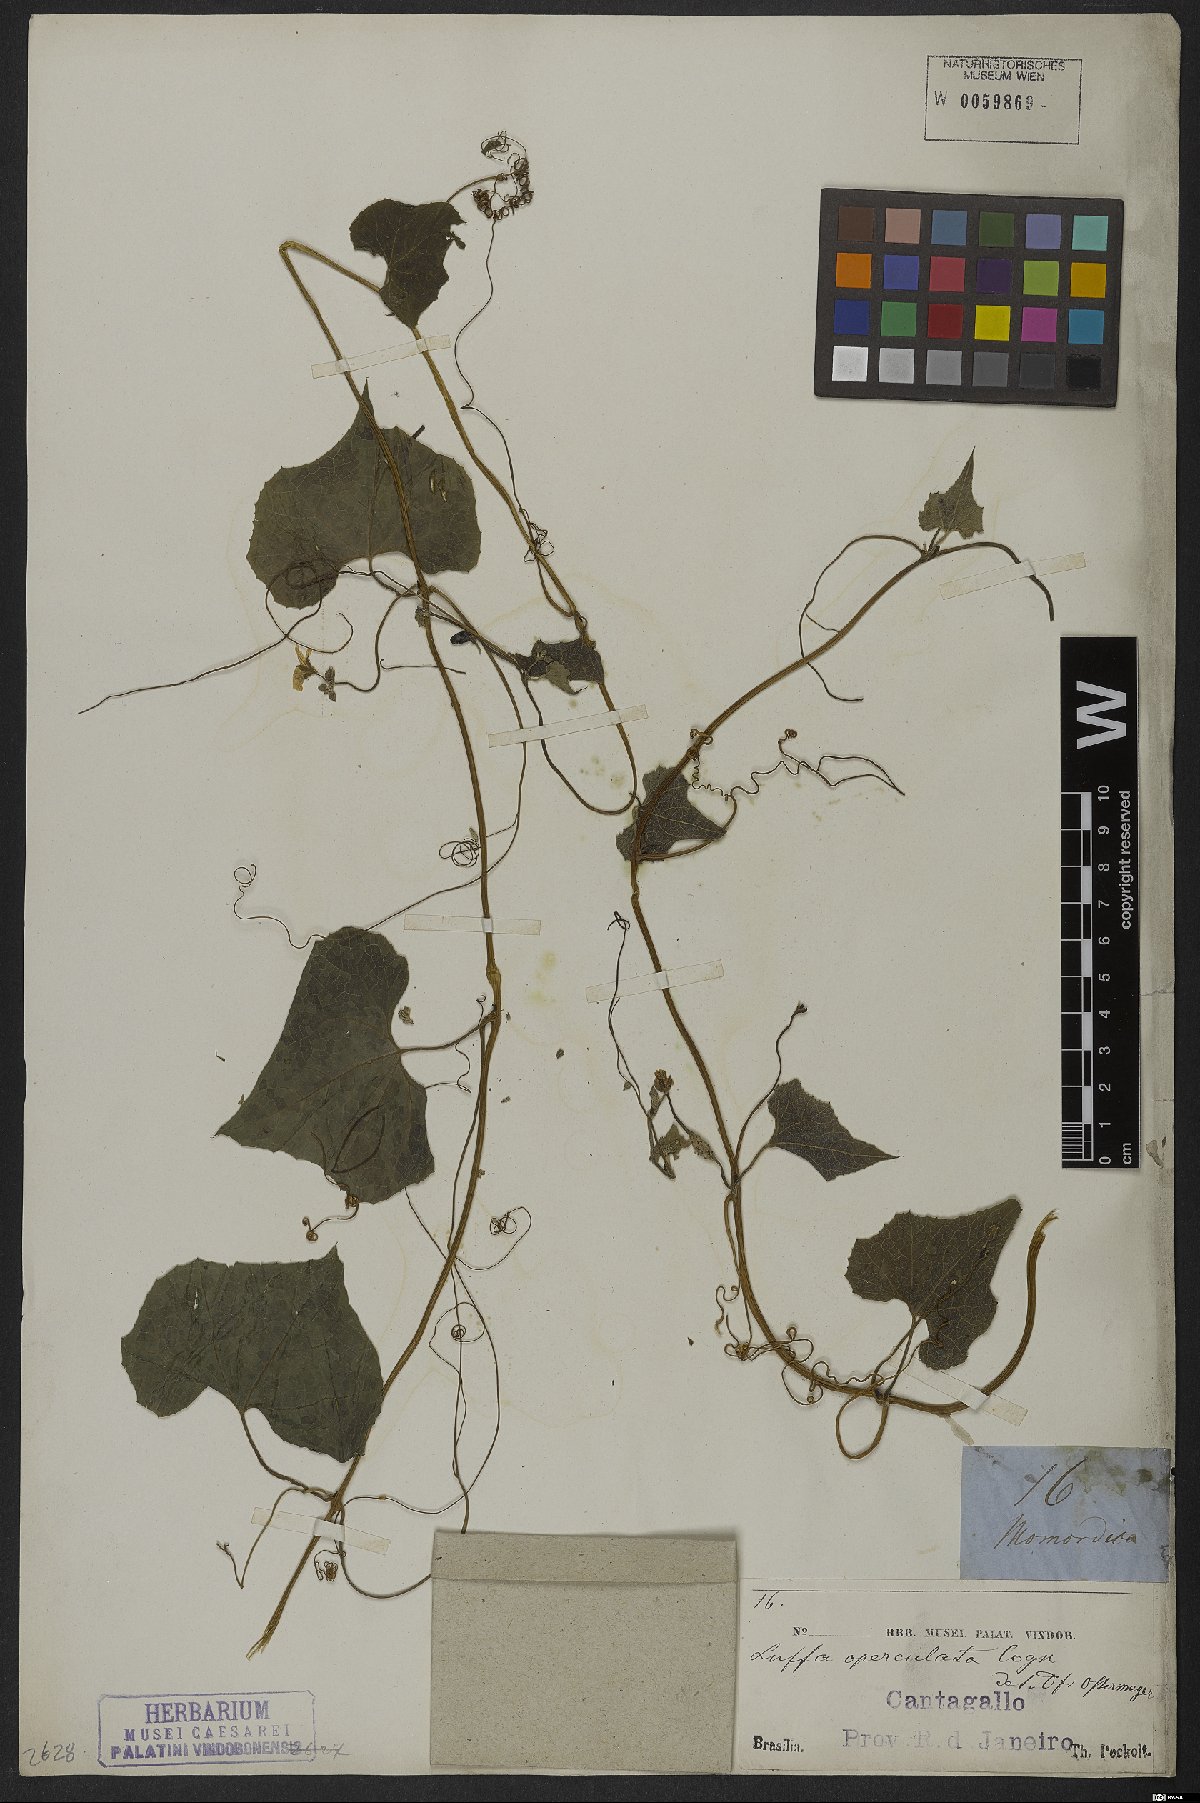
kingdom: Plantae
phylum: Tracheophyta
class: Magnoliopsida
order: Cucurbitales
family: Cucurbitaceae
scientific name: Cucurbitaceae
